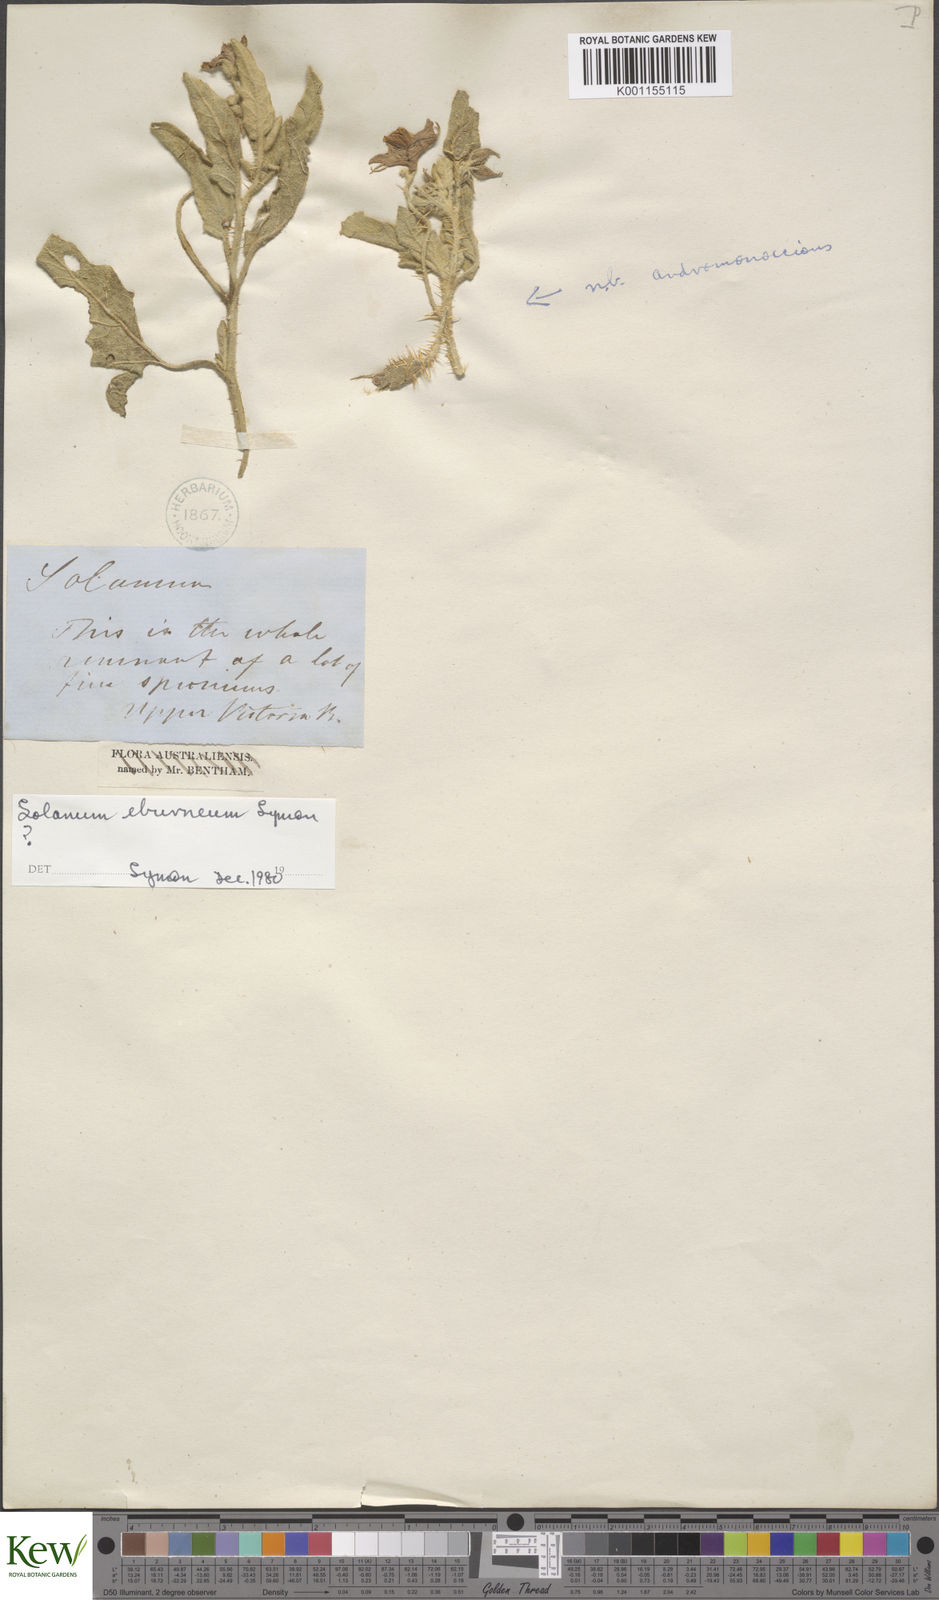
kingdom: Plantae
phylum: Tracheophyta
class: Magnoliopsida
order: Solanales
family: Solanaceae
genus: Solanum
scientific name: Solanum eburneum
